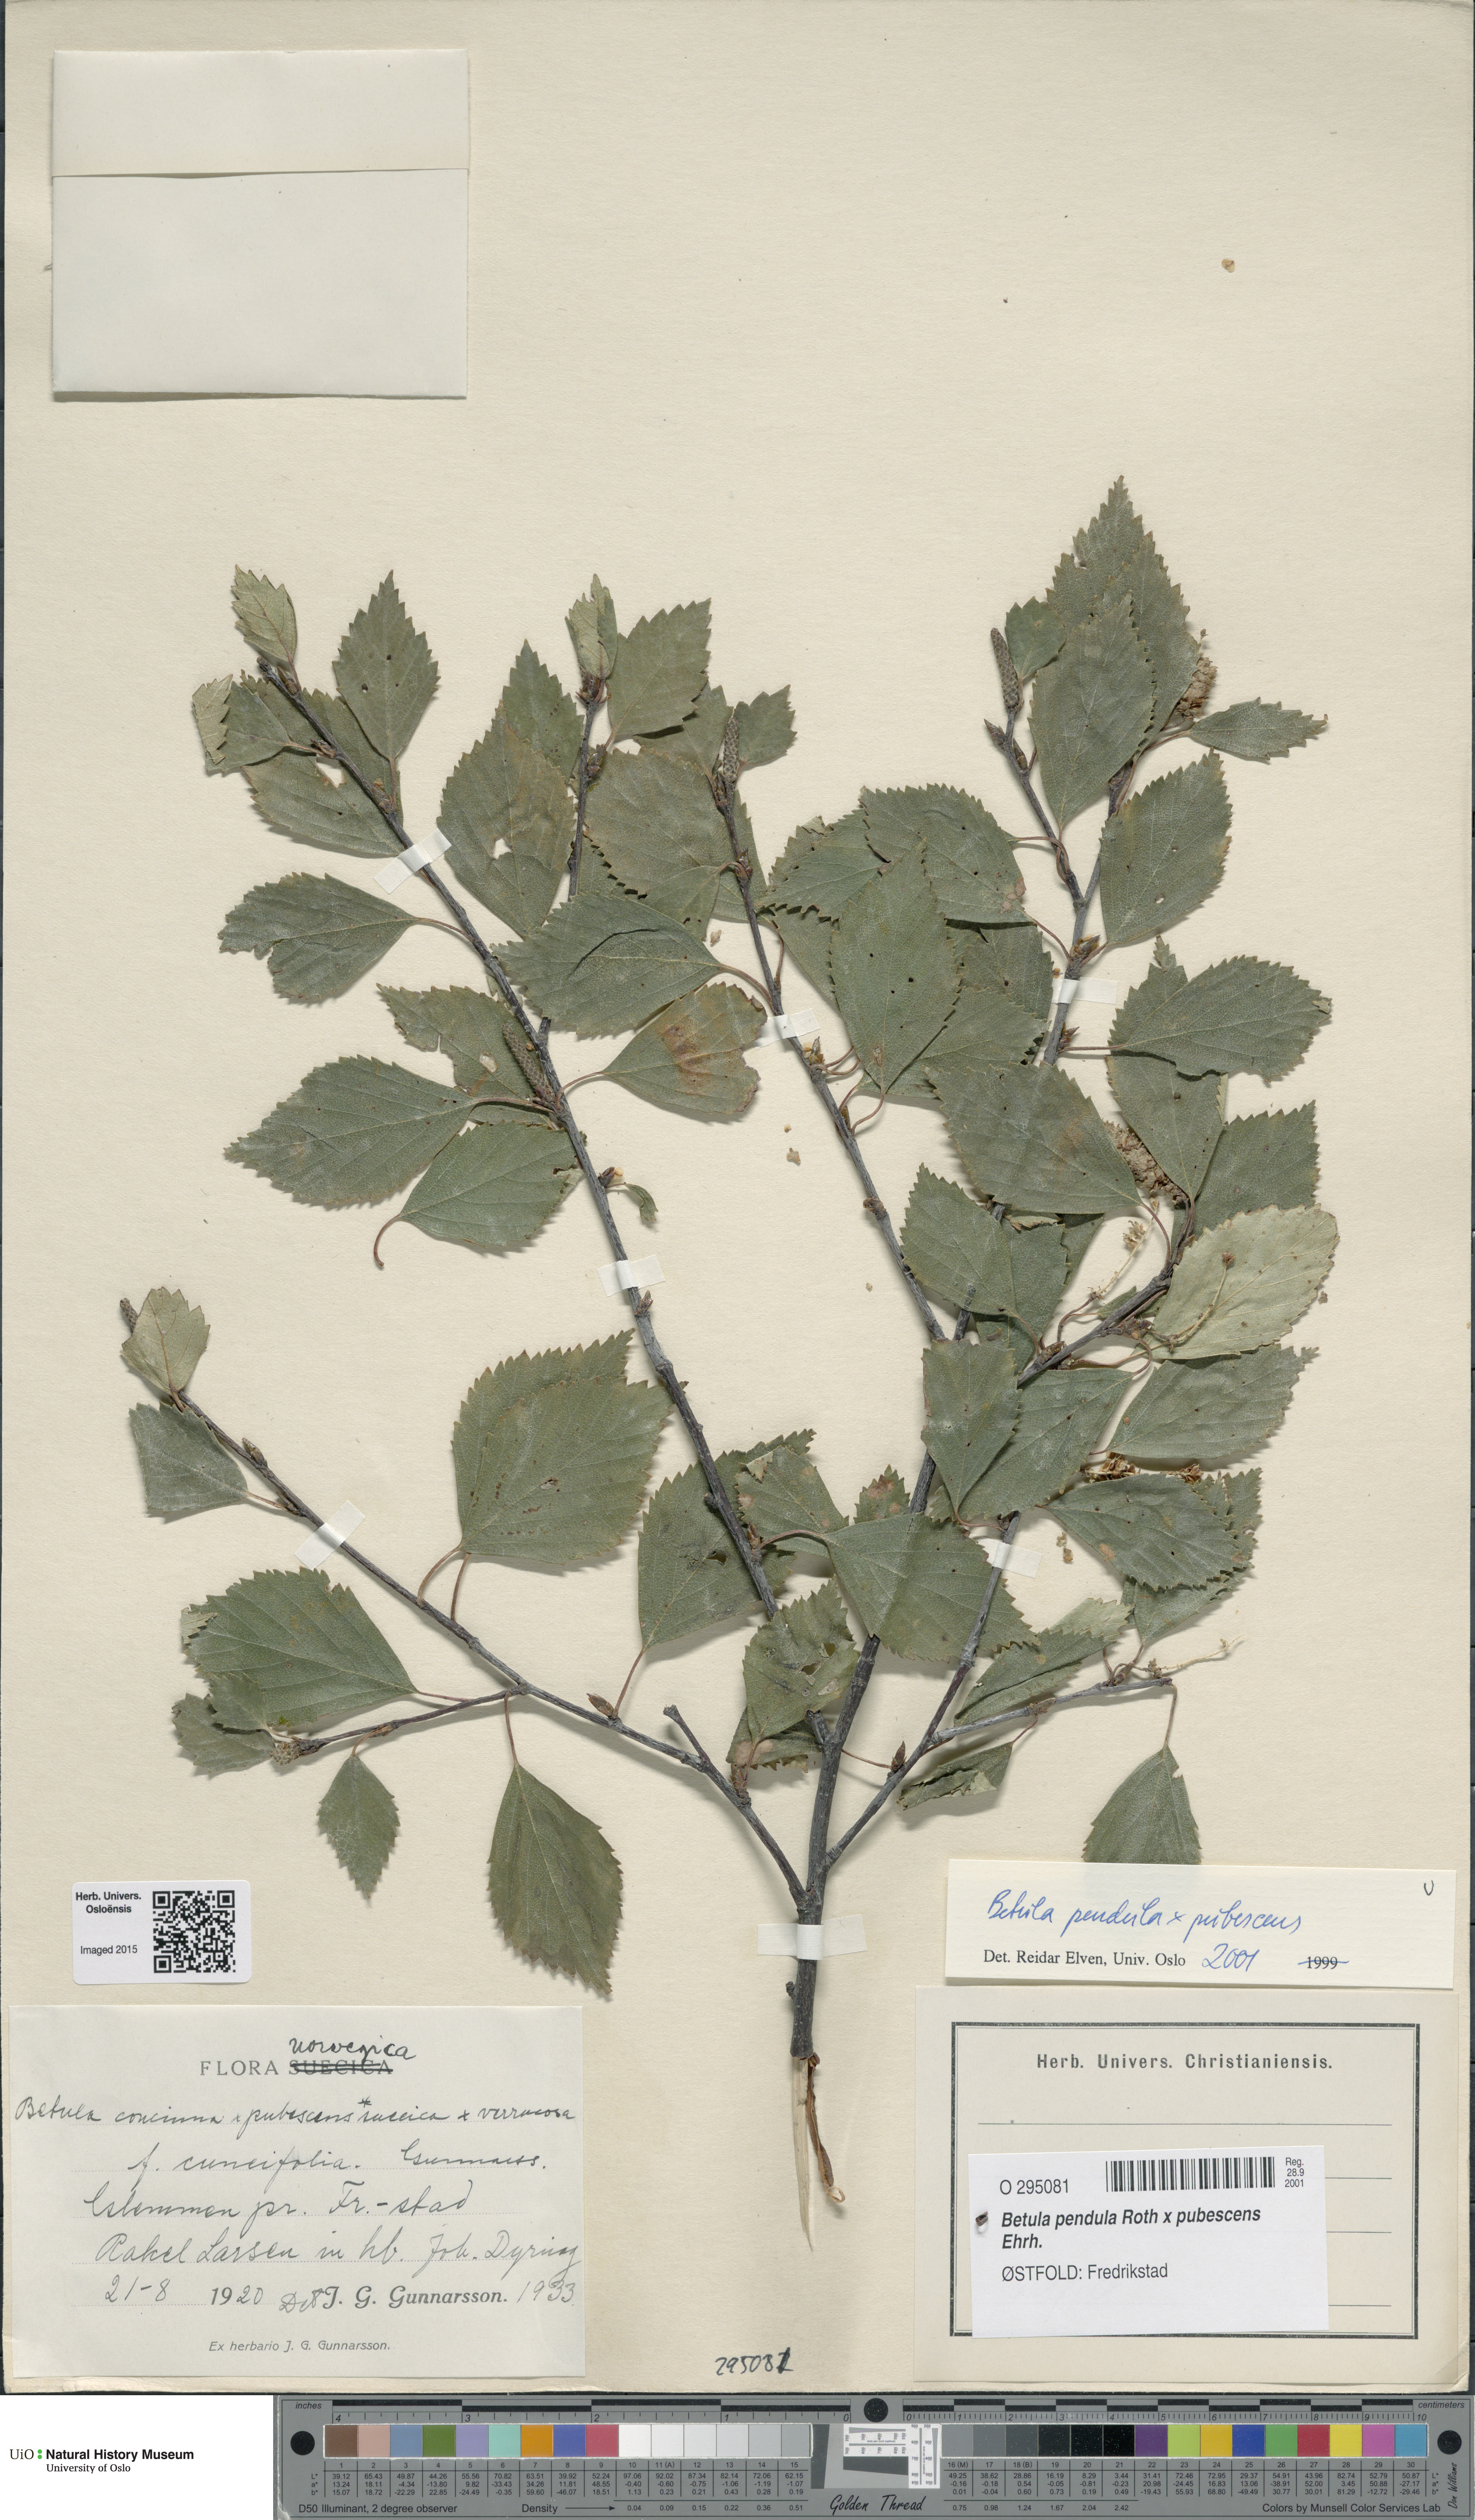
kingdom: Plantae
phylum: Tracheophyta
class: Magnoliopsida
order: Fagales
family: Betulaceae
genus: Betula
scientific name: Betula
